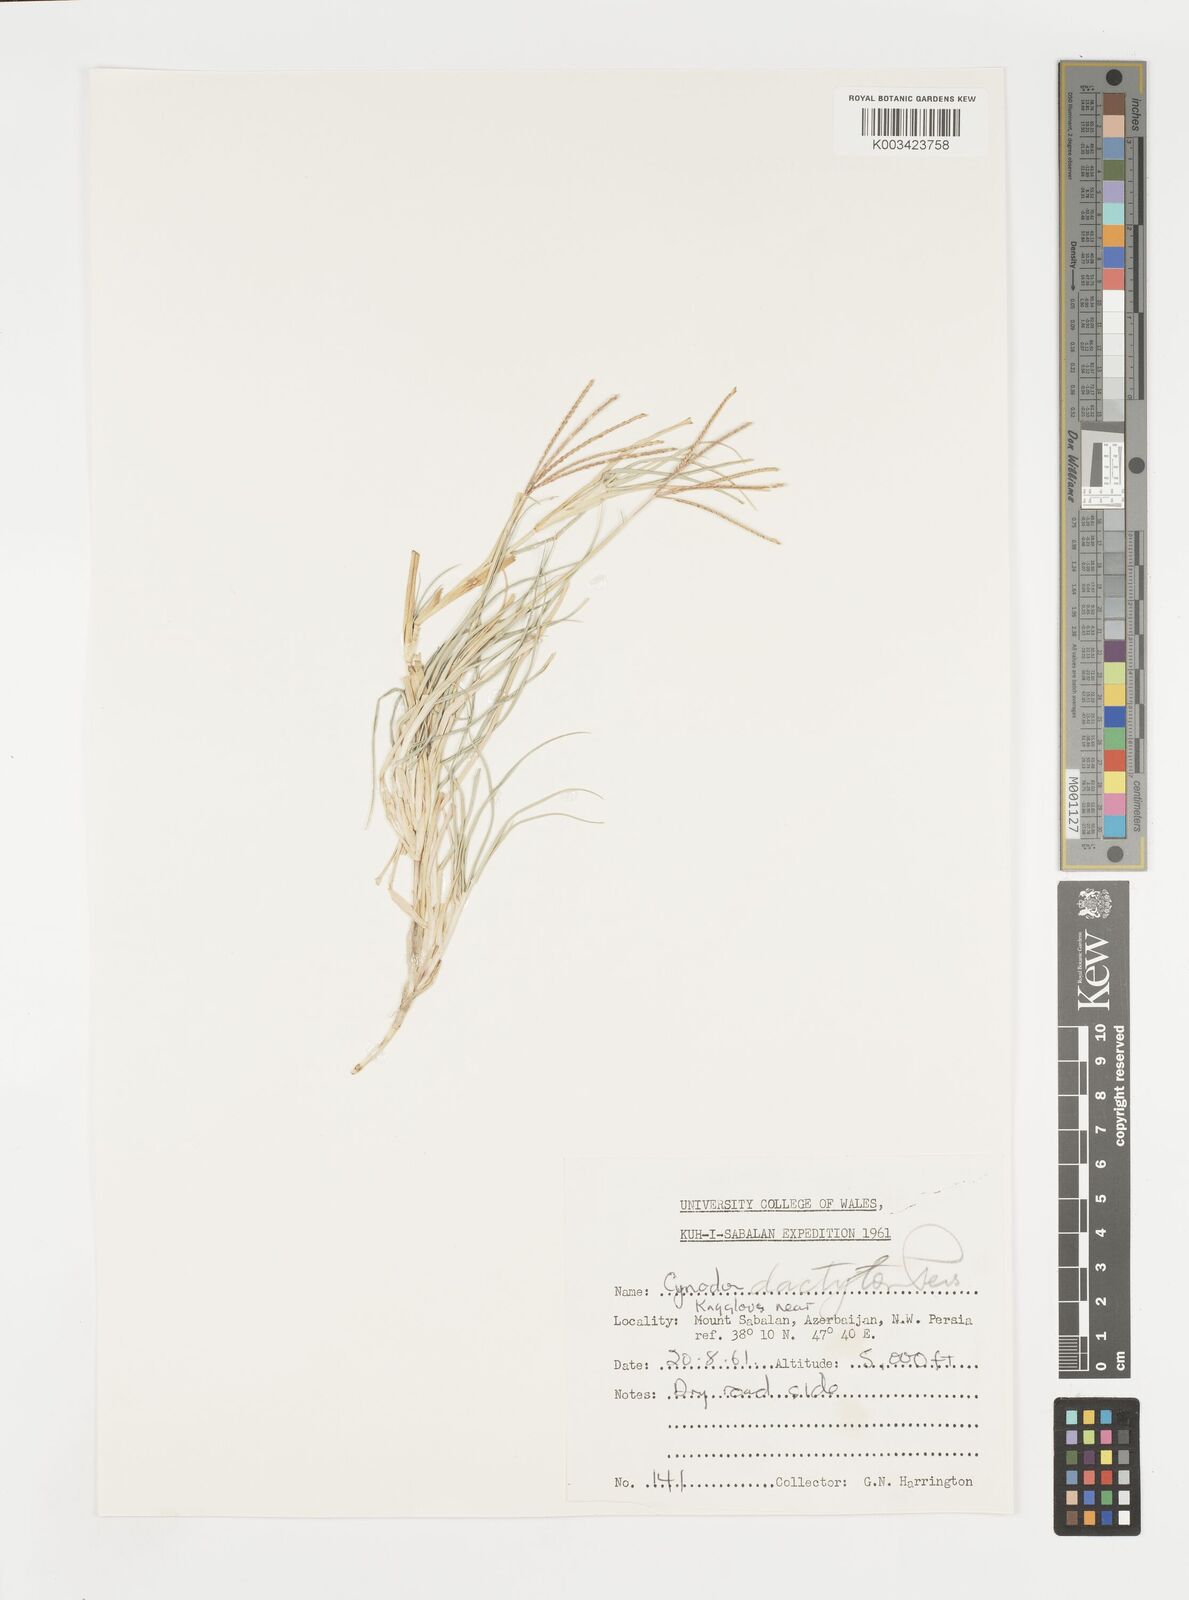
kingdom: Plantae
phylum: Tracheophyta
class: Liliopsida
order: Poales
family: Poaceae
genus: Cynodon
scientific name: Cynodon dactylon
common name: Bermuda grass
